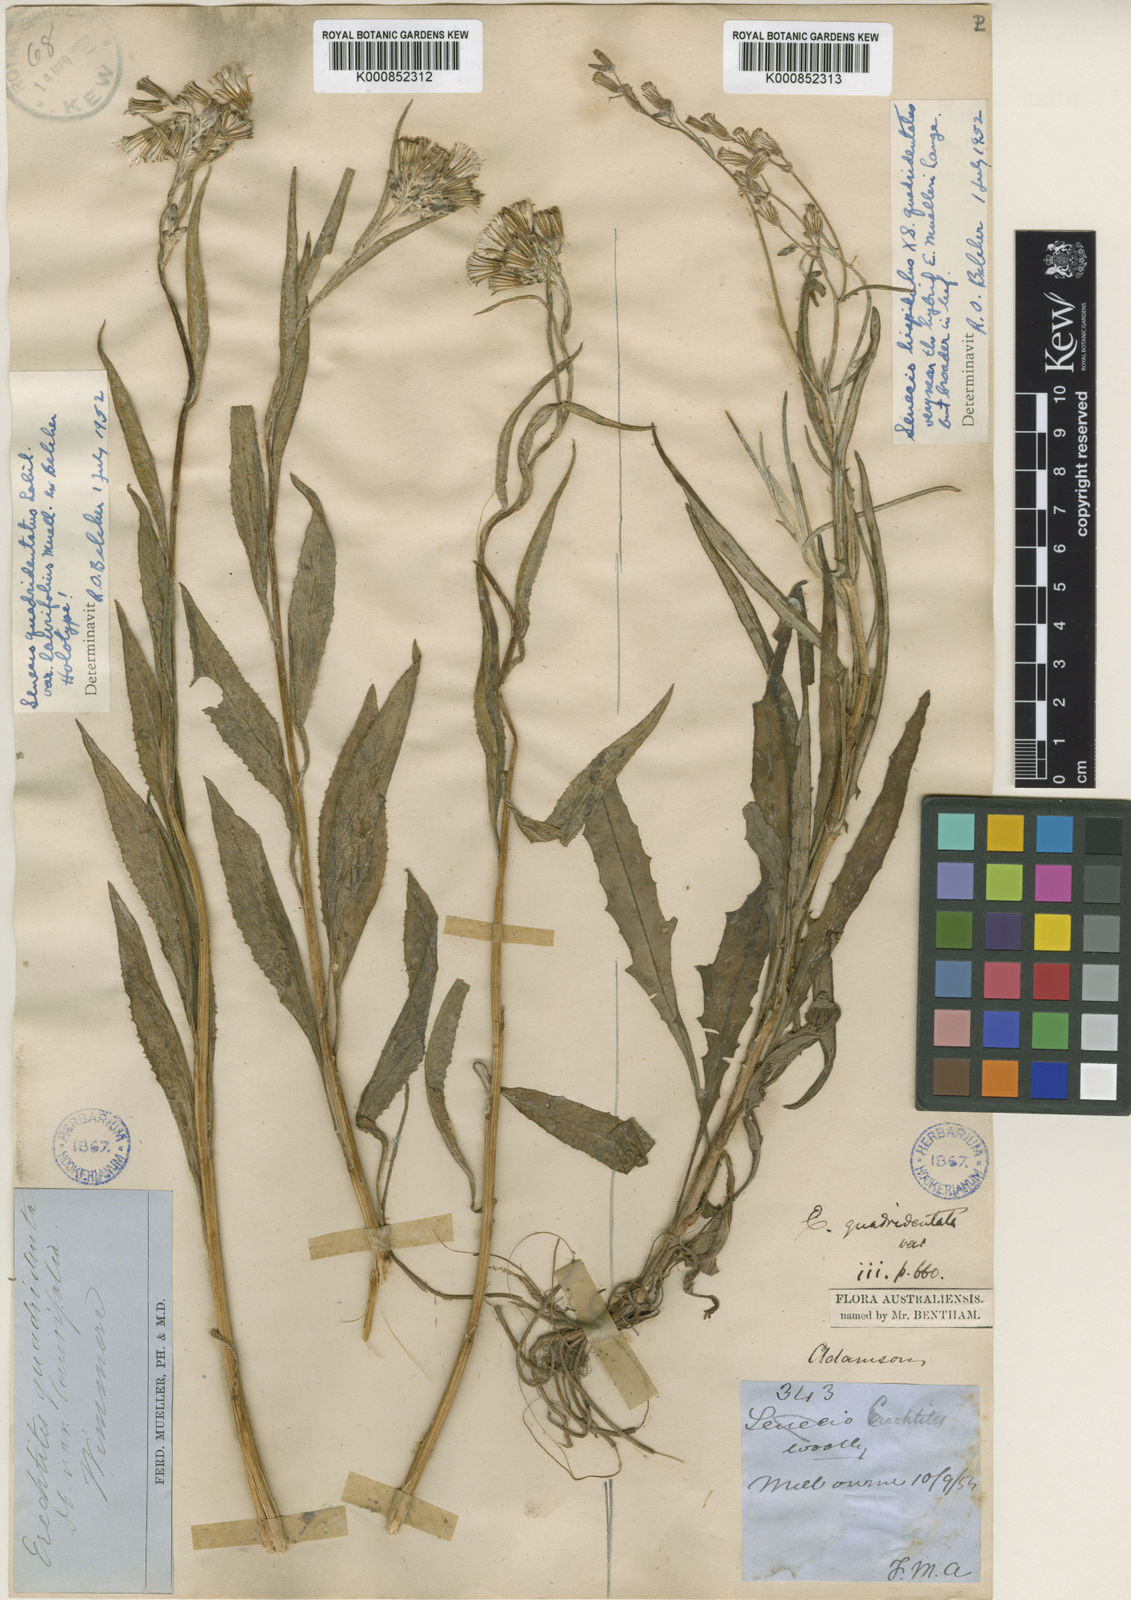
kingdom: Plantae
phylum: Tracheophyta
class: Magnoliopsida
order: Asterales
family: Asteraceae
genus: Senecio
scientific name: Senecio quadridentatus
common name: Cotton fireweed
